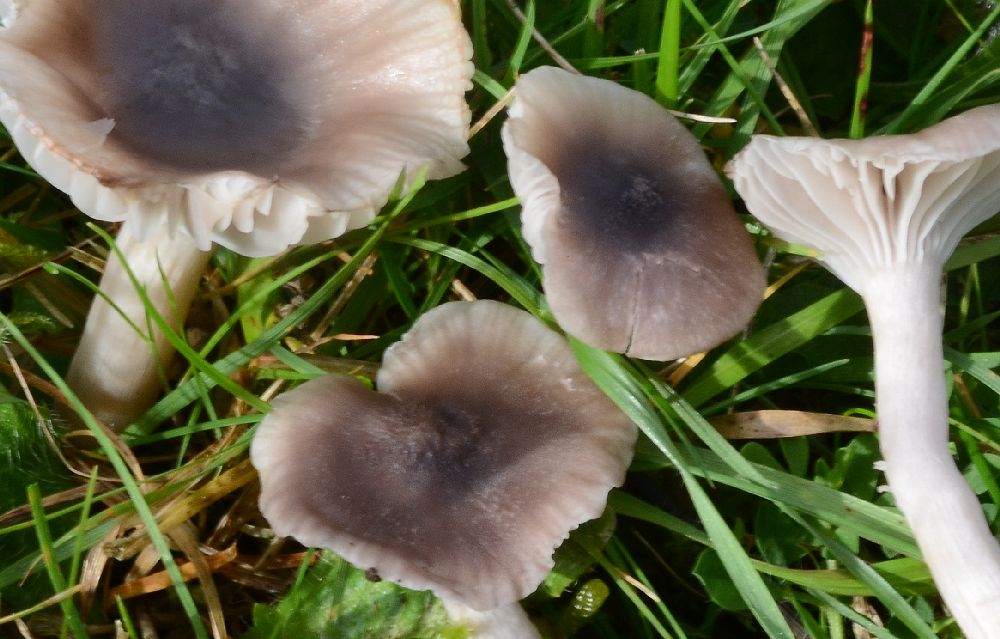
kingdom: Fungi
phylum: Basidiomycota
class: Agaricomycetes
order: Agaricales
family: Hygrophoraceae
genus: Cuphophyllus
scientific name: Cuphophyllus
